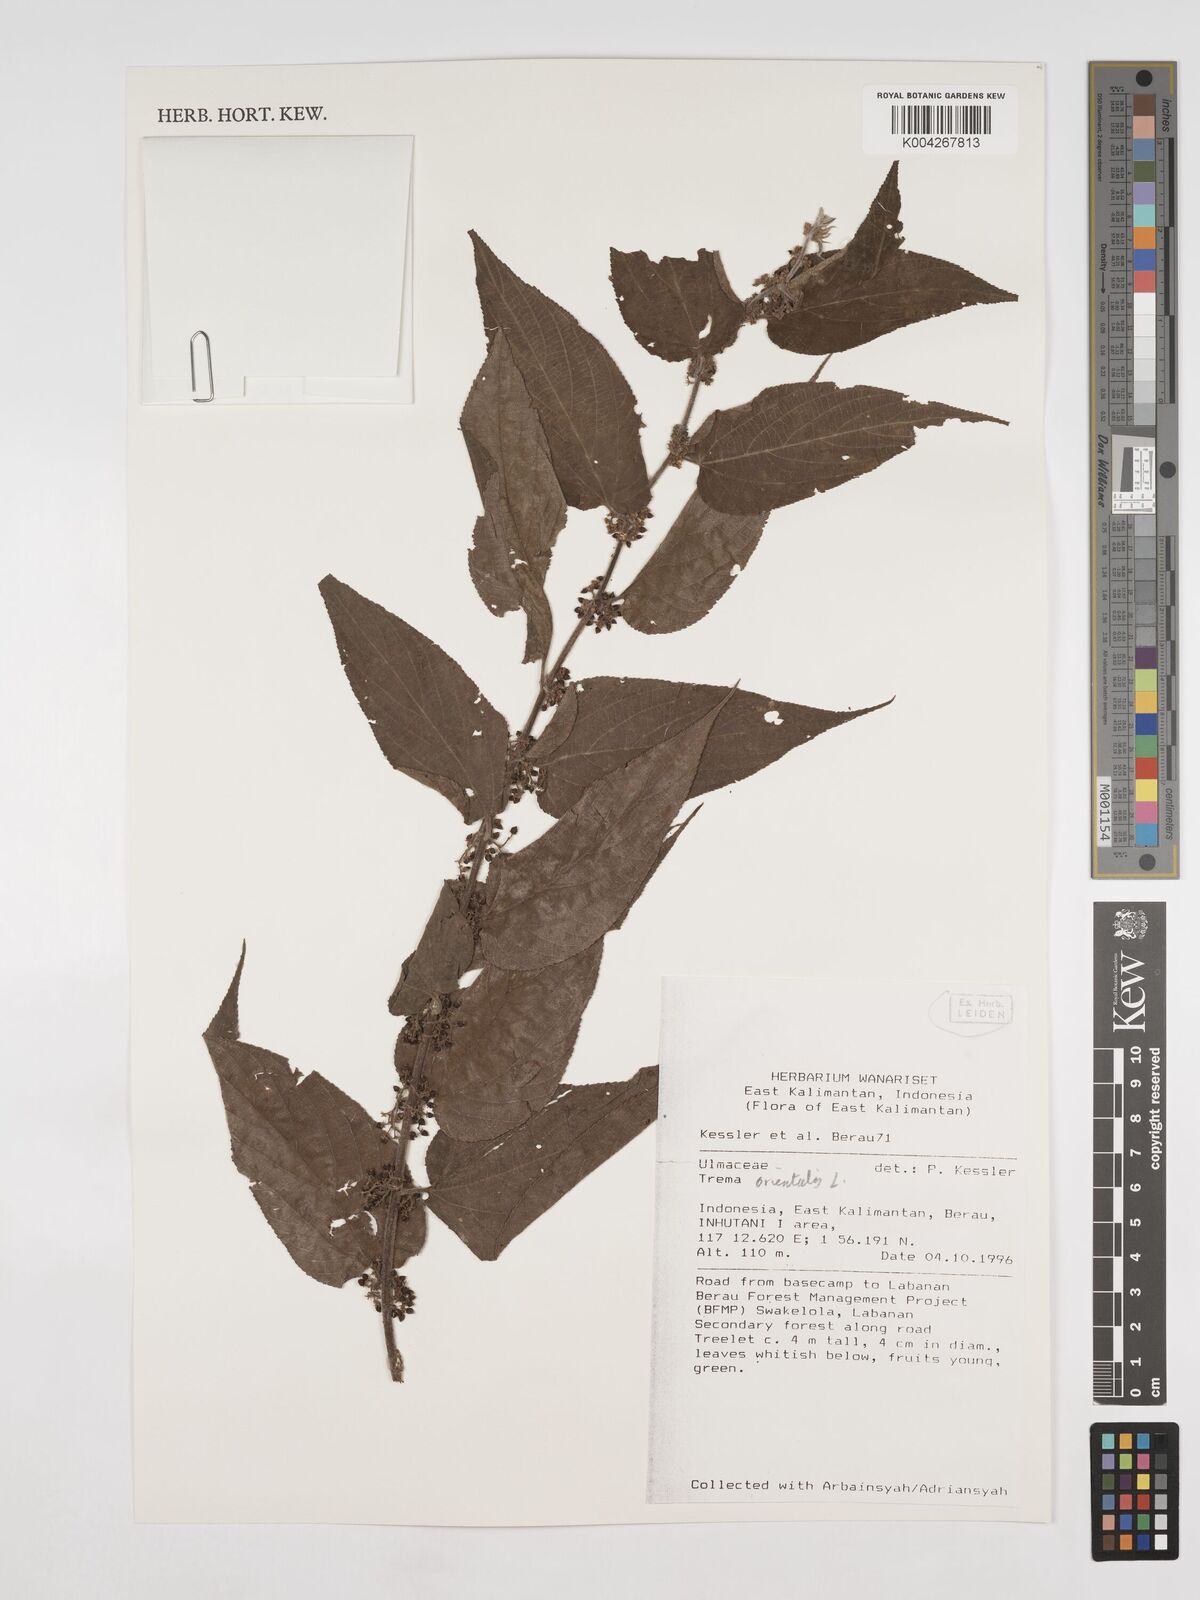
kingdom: Plantae
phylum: Tracheophyta
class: Magnoliopsida
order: Rosales
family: Cannabaceae
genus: Trema
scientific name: Trema orientale
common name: Indian charcoal tree
